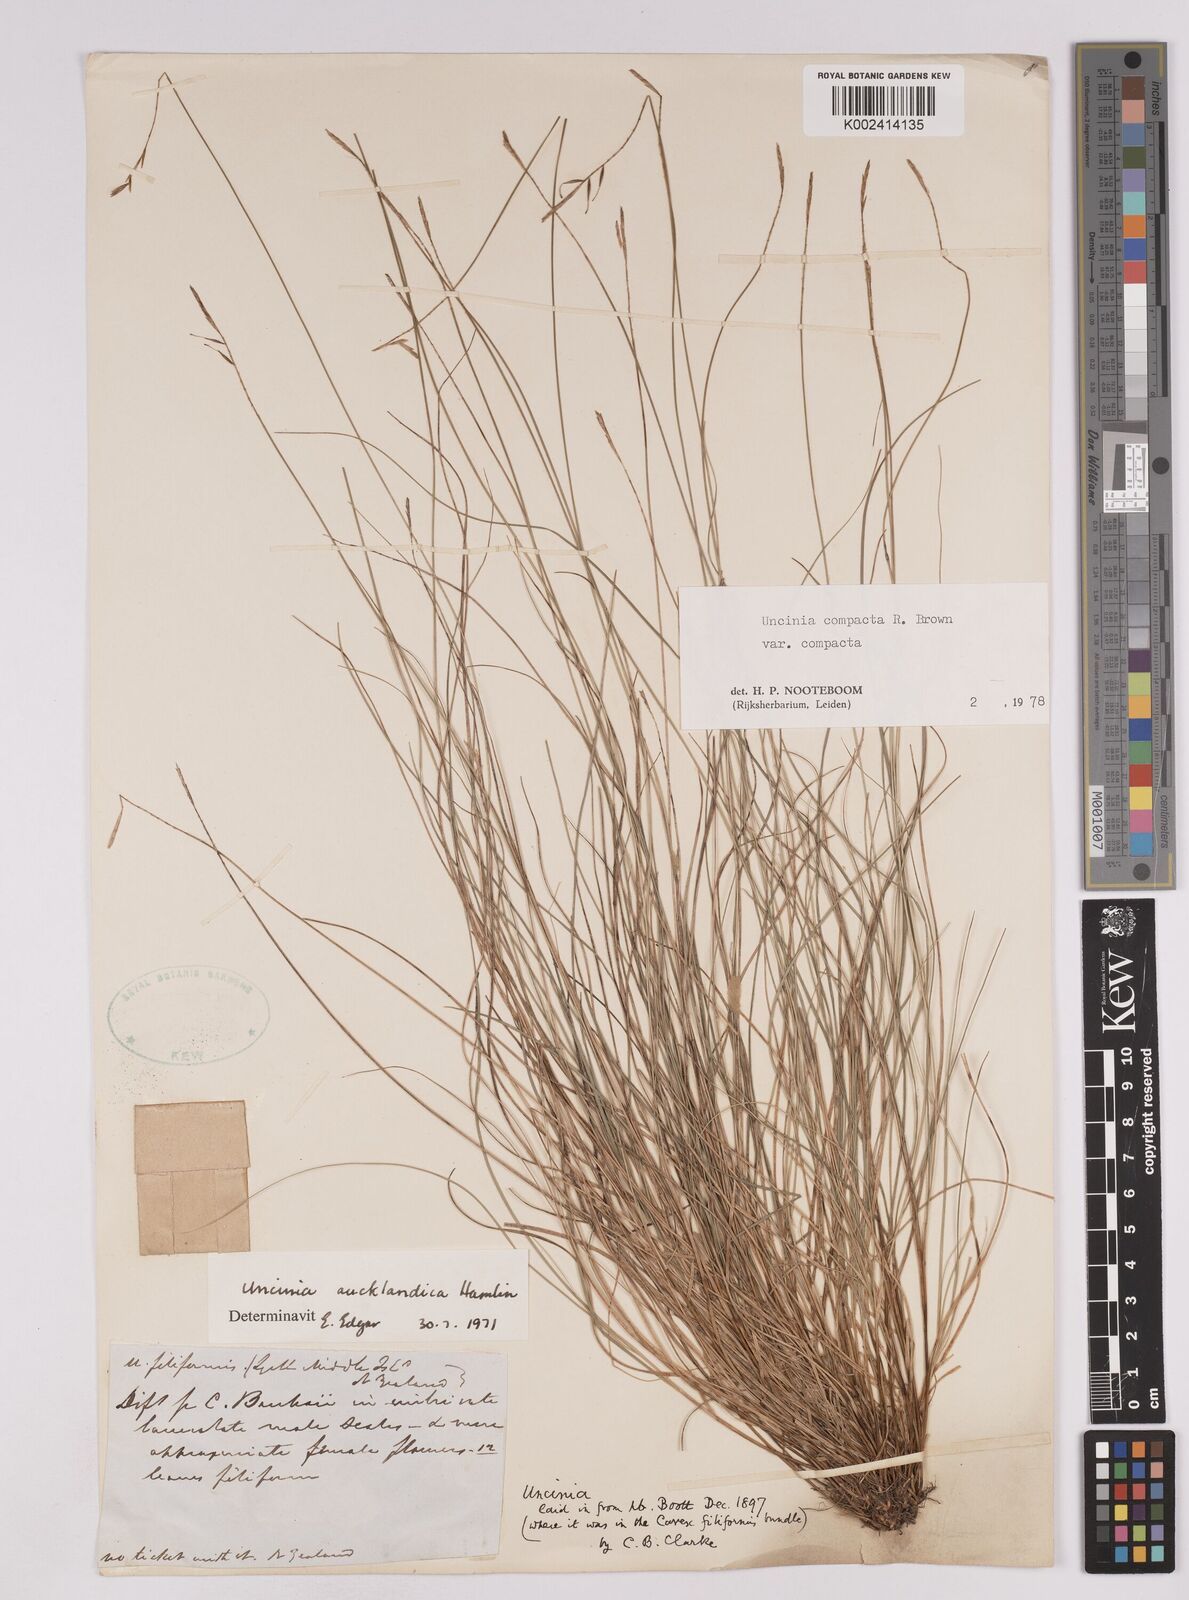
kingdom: Plantae
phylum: Tracheophyta
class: Liliopsida
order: Poales
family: Cyperaceae
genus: Carex
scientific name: Carex austrocompacta
